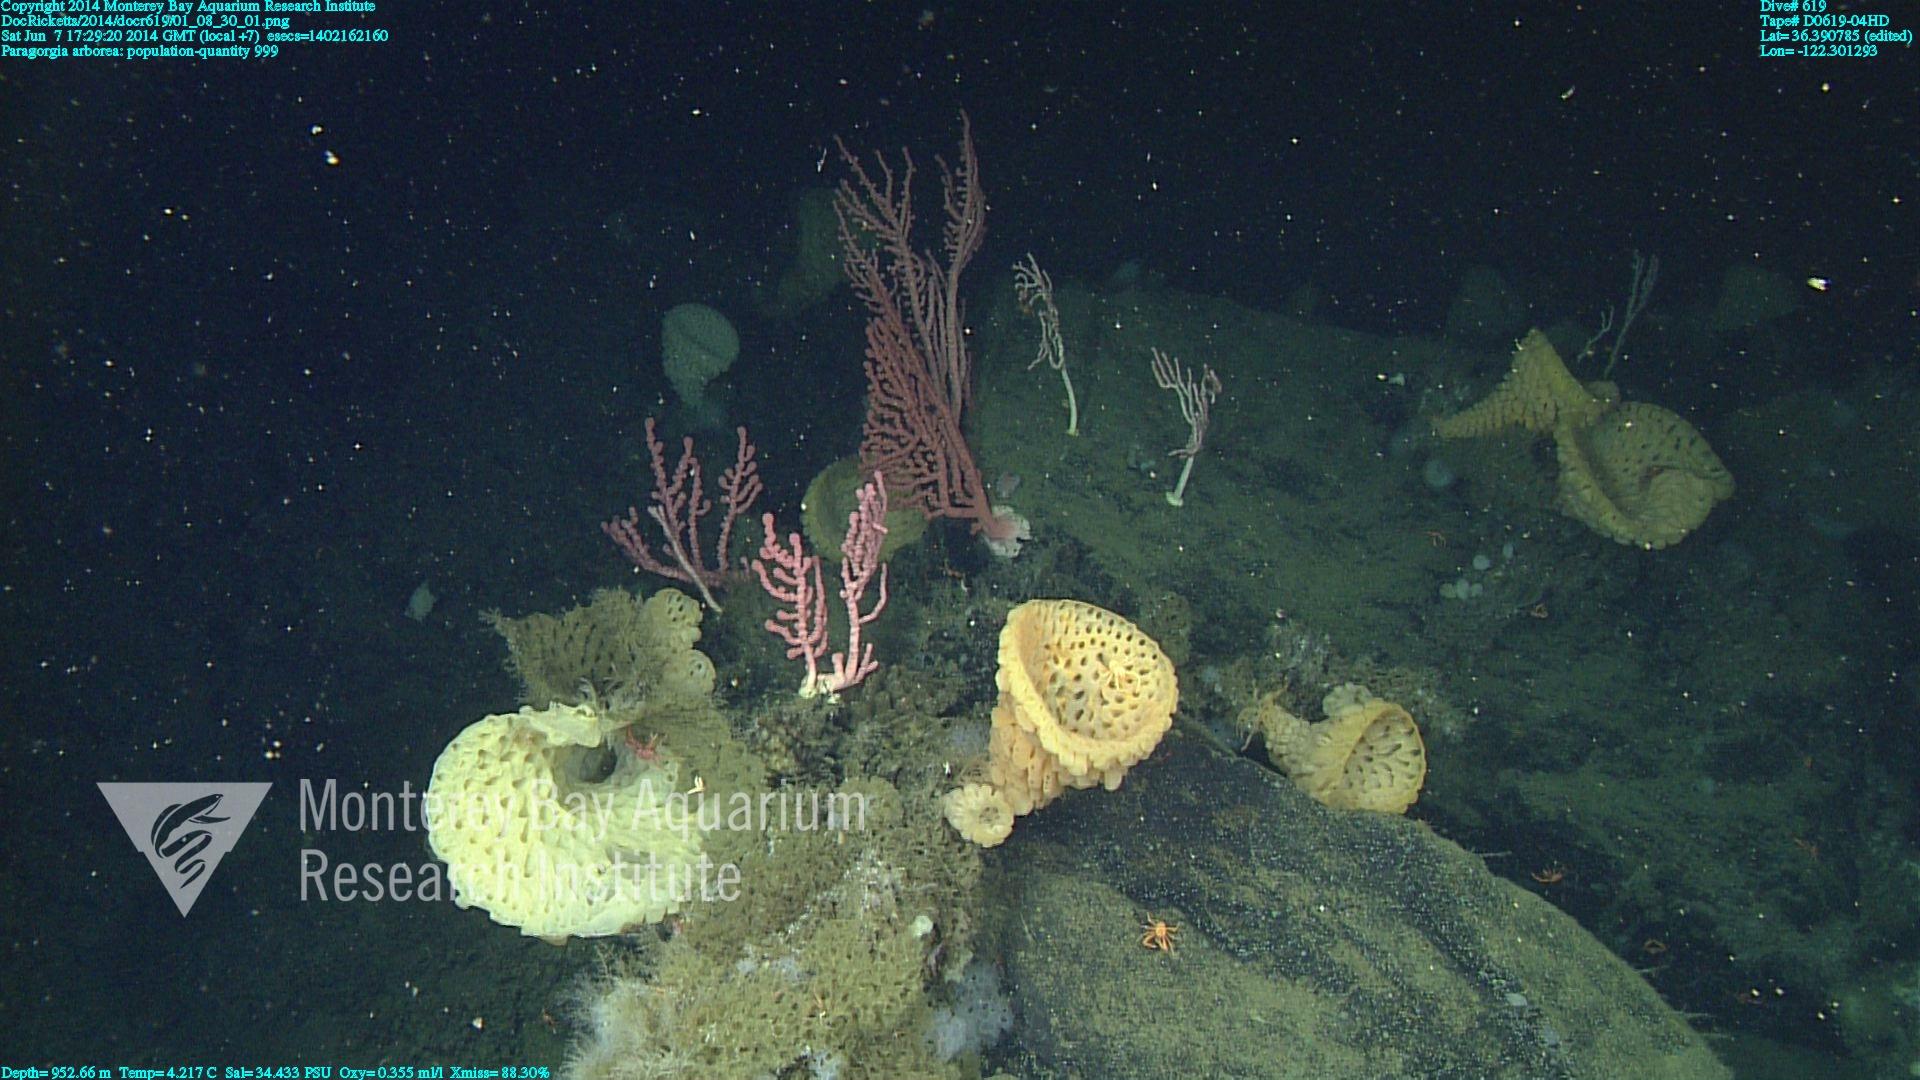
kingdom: Animalia
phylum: Cnidaria
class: Anthozoa
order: Scleralcyonacea
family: Coralliidae
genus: Paragorgia
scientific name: Paragorgia arborea
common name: Bubble gum coral
